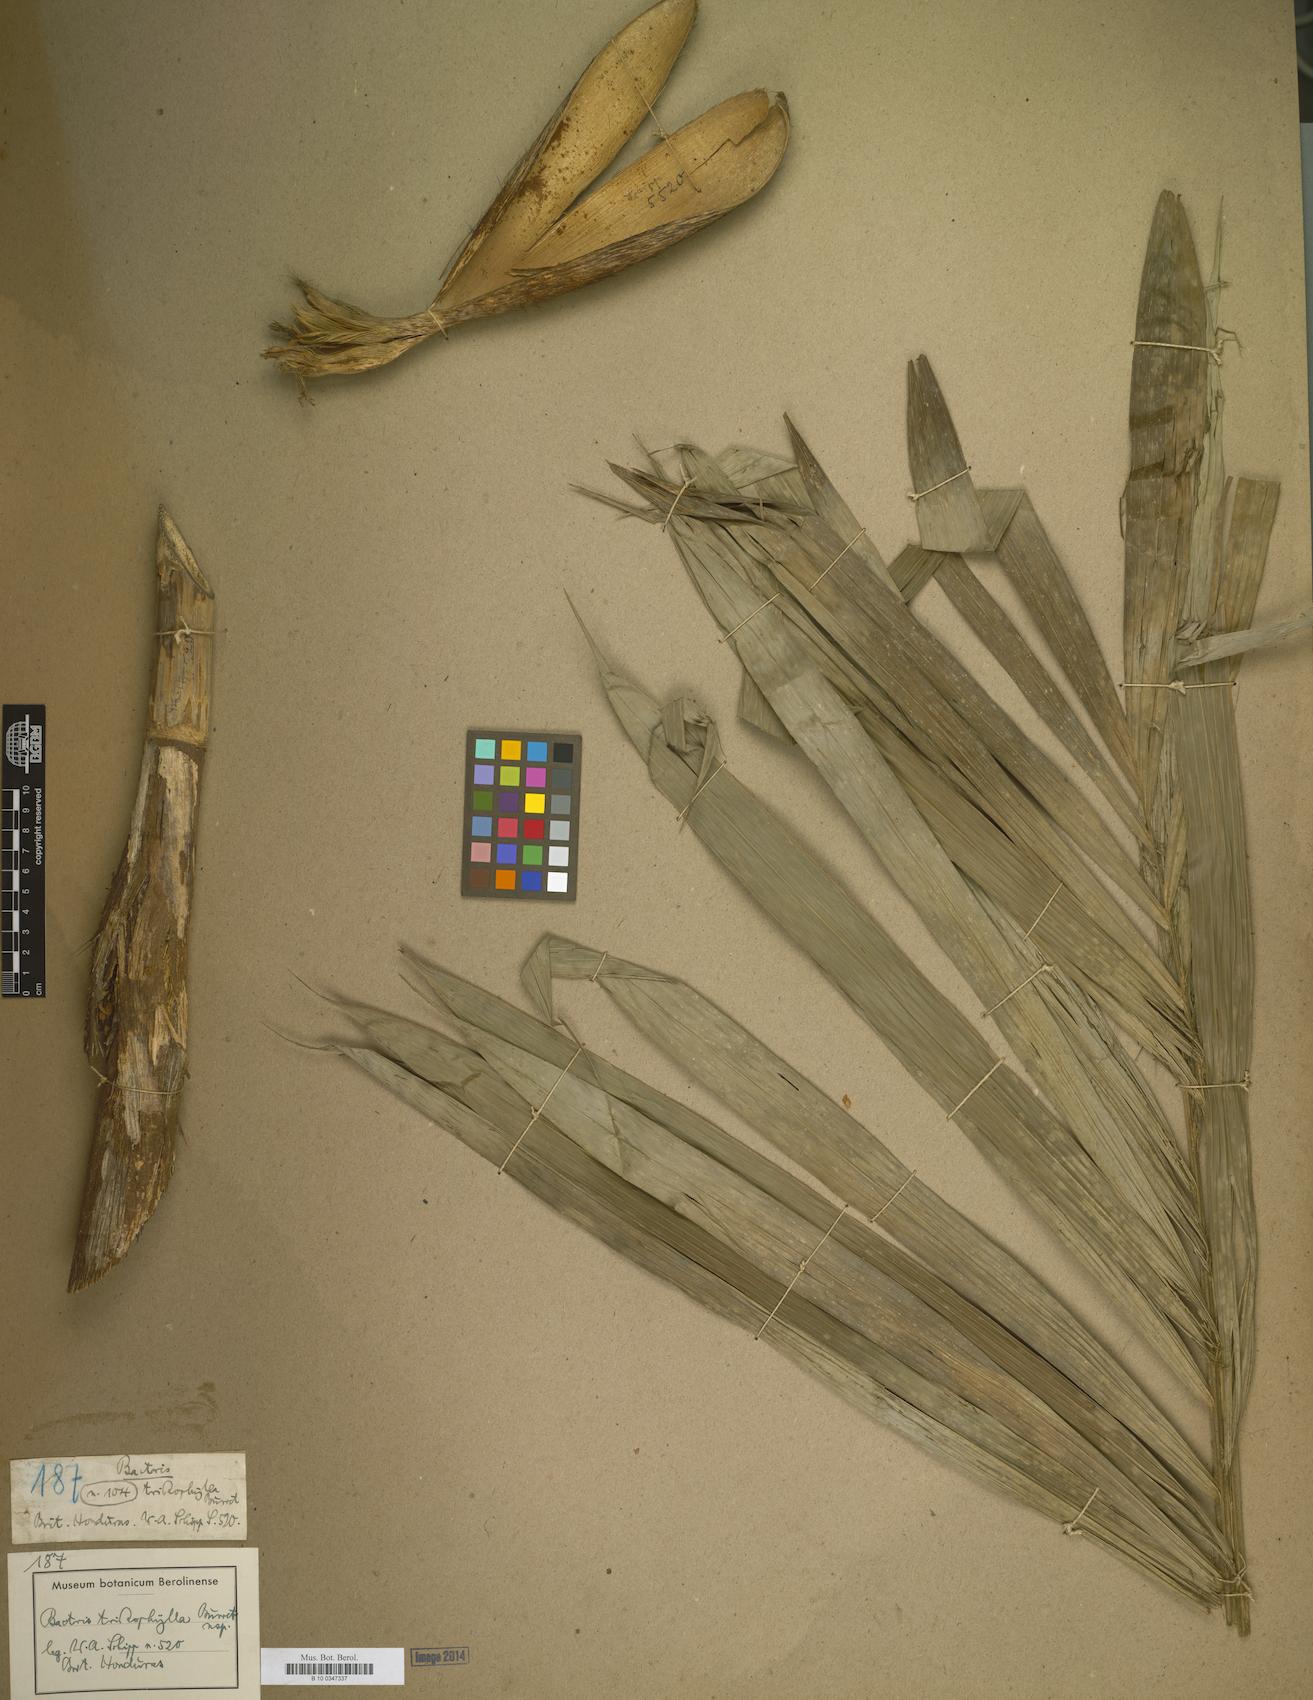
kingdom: Plantae
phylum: Tracheophyta
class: Liliopsida
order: Arecales
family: Arecaceae
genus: Bactris
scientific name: Bactris
